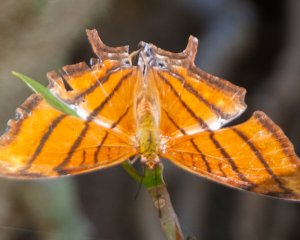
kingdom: Animalia
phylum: Arthropoda
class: Insecta
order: Lepidoptera
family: Nymphalidae
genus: Marpesia
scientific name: Marpesia petreus
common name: Ruddy Daggerwing
